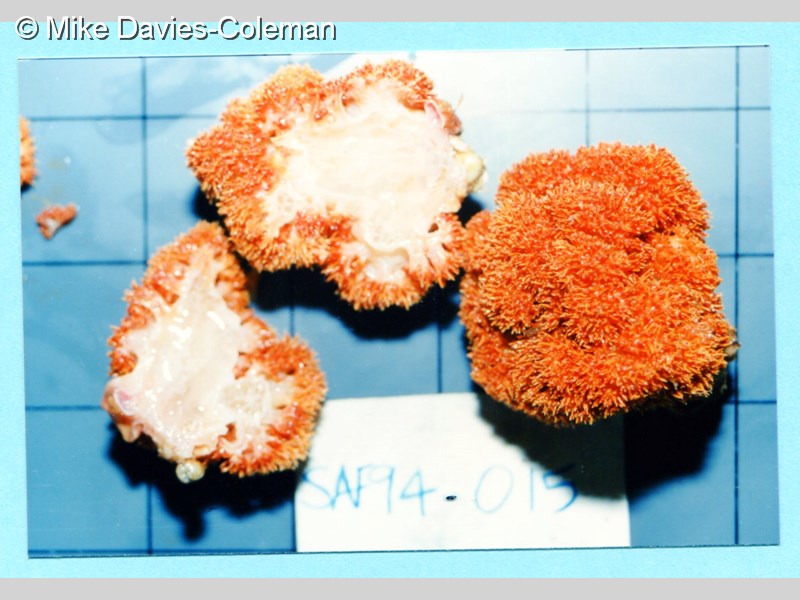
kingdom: Animalia
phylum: Cnidaria
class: Anthozoa
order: Malacalcyonacea
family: Nephtheidae
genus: Dendronephthya
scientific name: Dendronephthya
